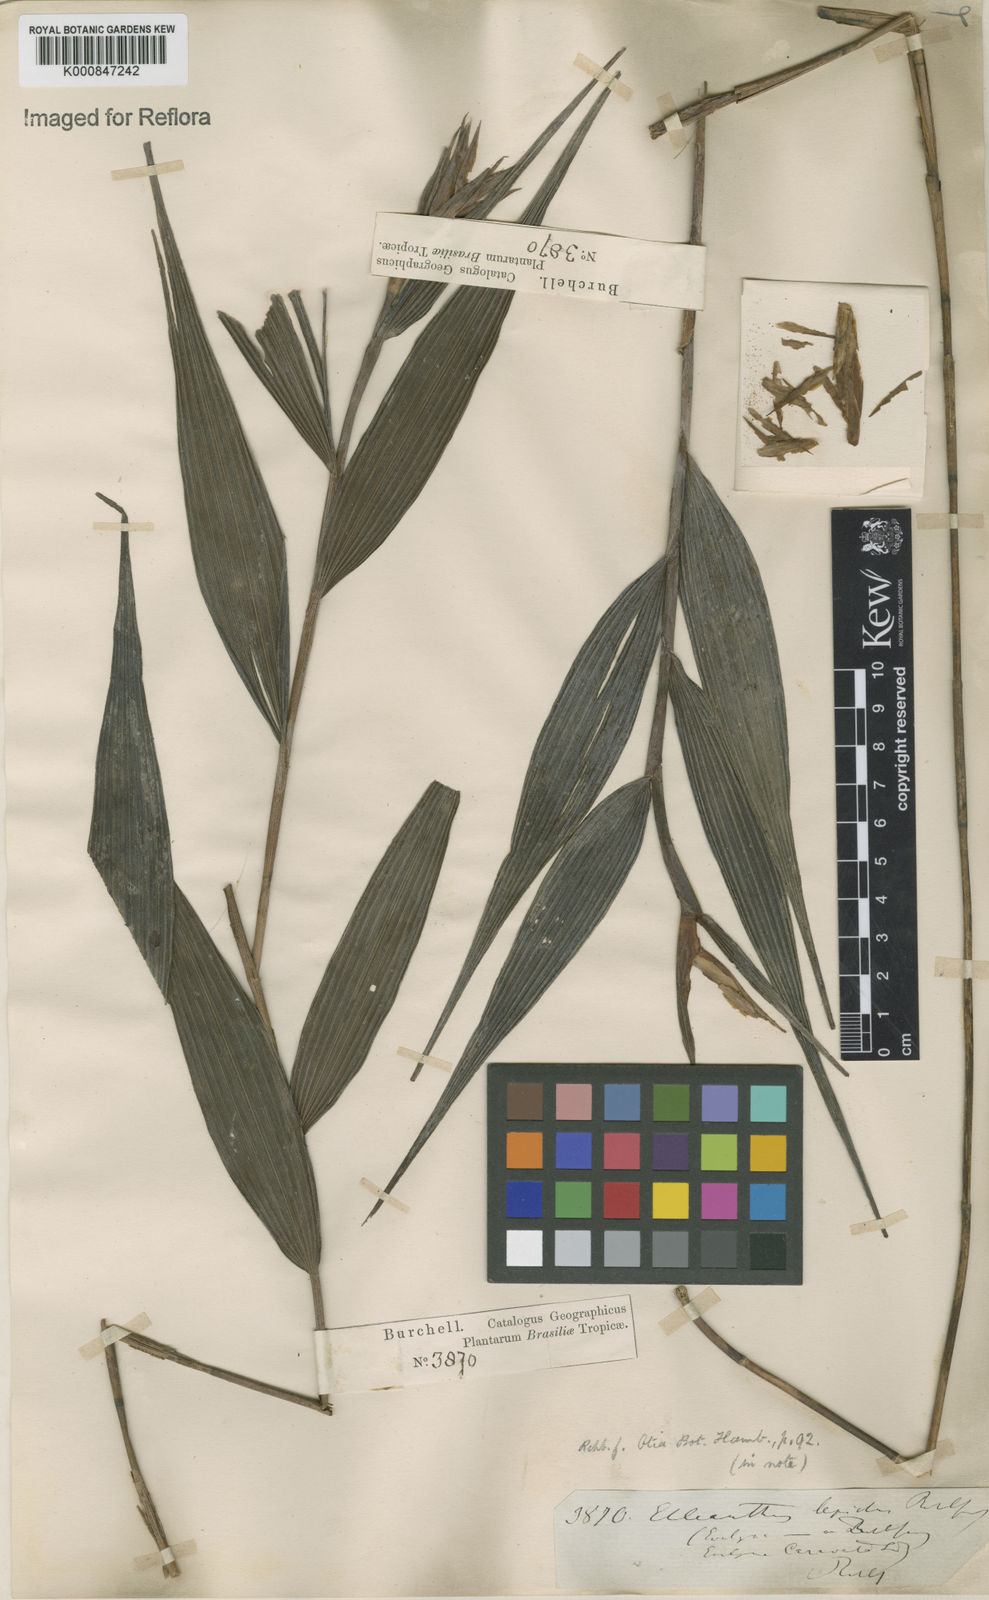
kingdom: Plantae
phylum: Tracheophyta
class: Liliopsida
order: Asparagales
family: Orchidaceae
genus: Elleanthus
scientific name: Elleanthus caravata
